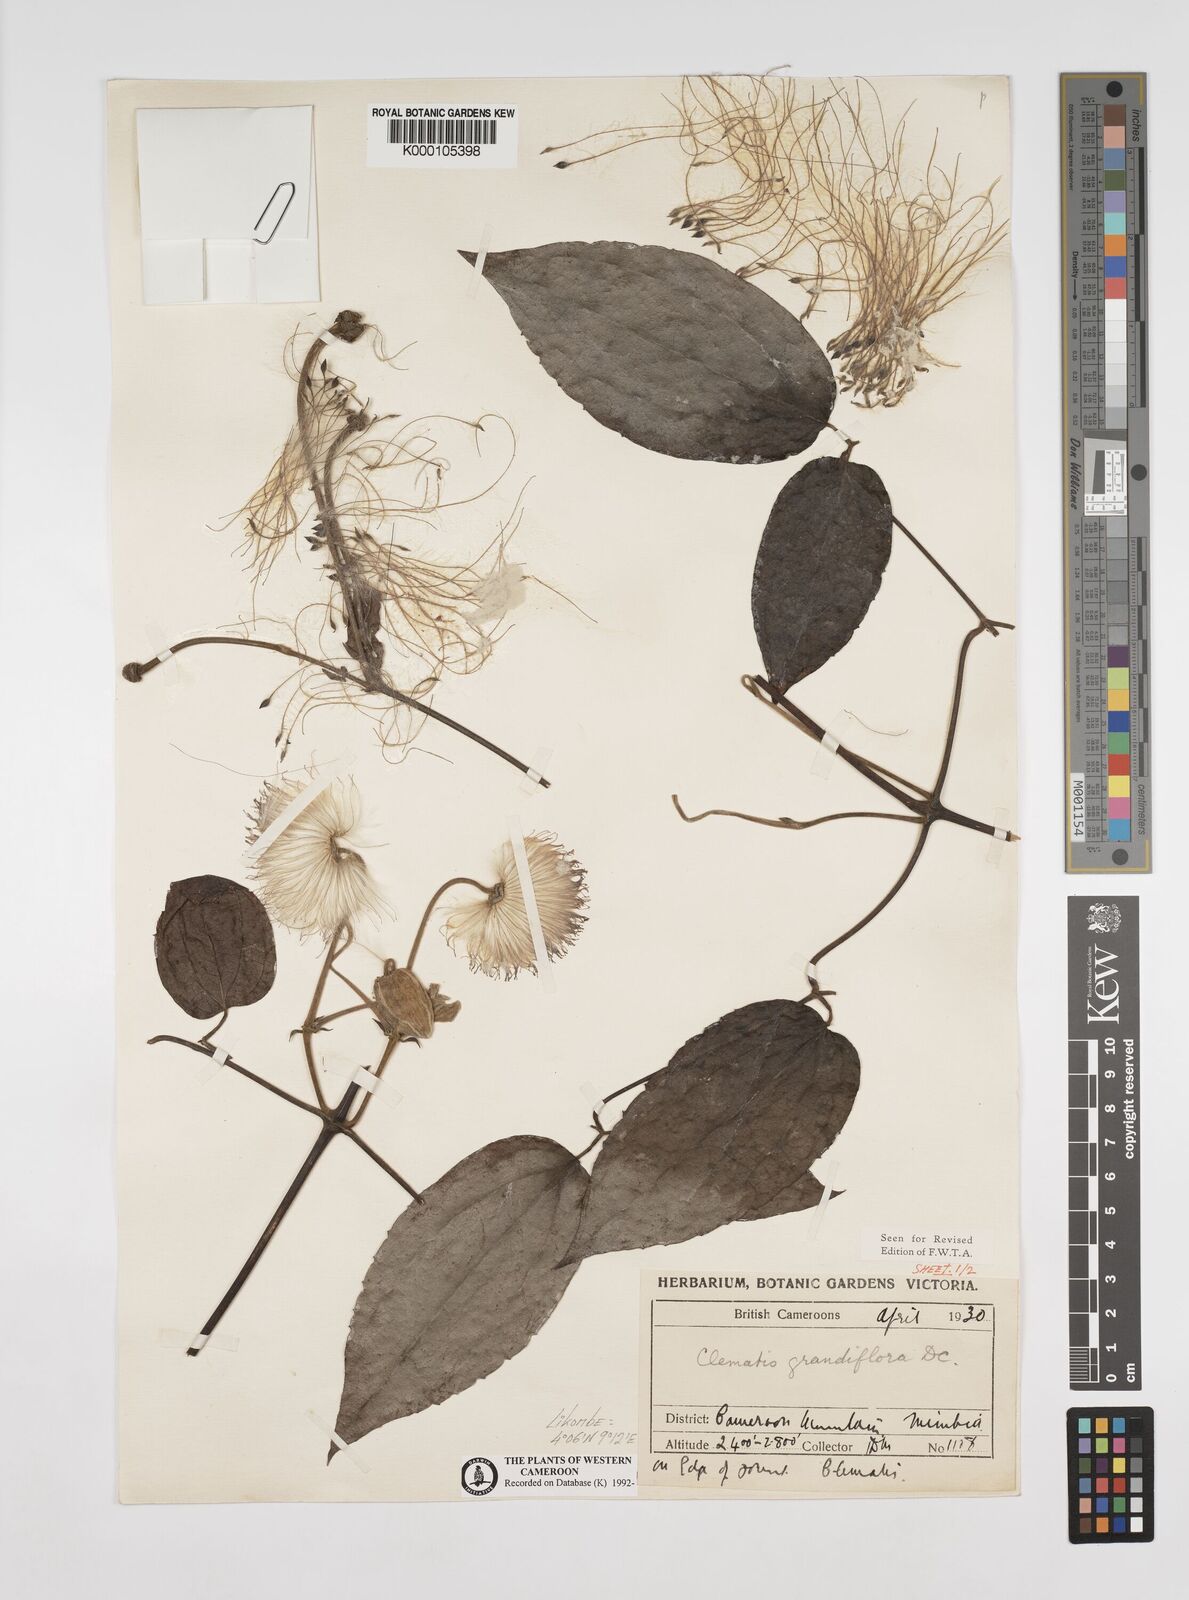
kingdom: Plantae
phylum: Tracheophyta
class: Magnoliopsida
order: Ranunculales
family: Ranunculaceae
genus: Clematis
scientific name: Clematis grandiflora
